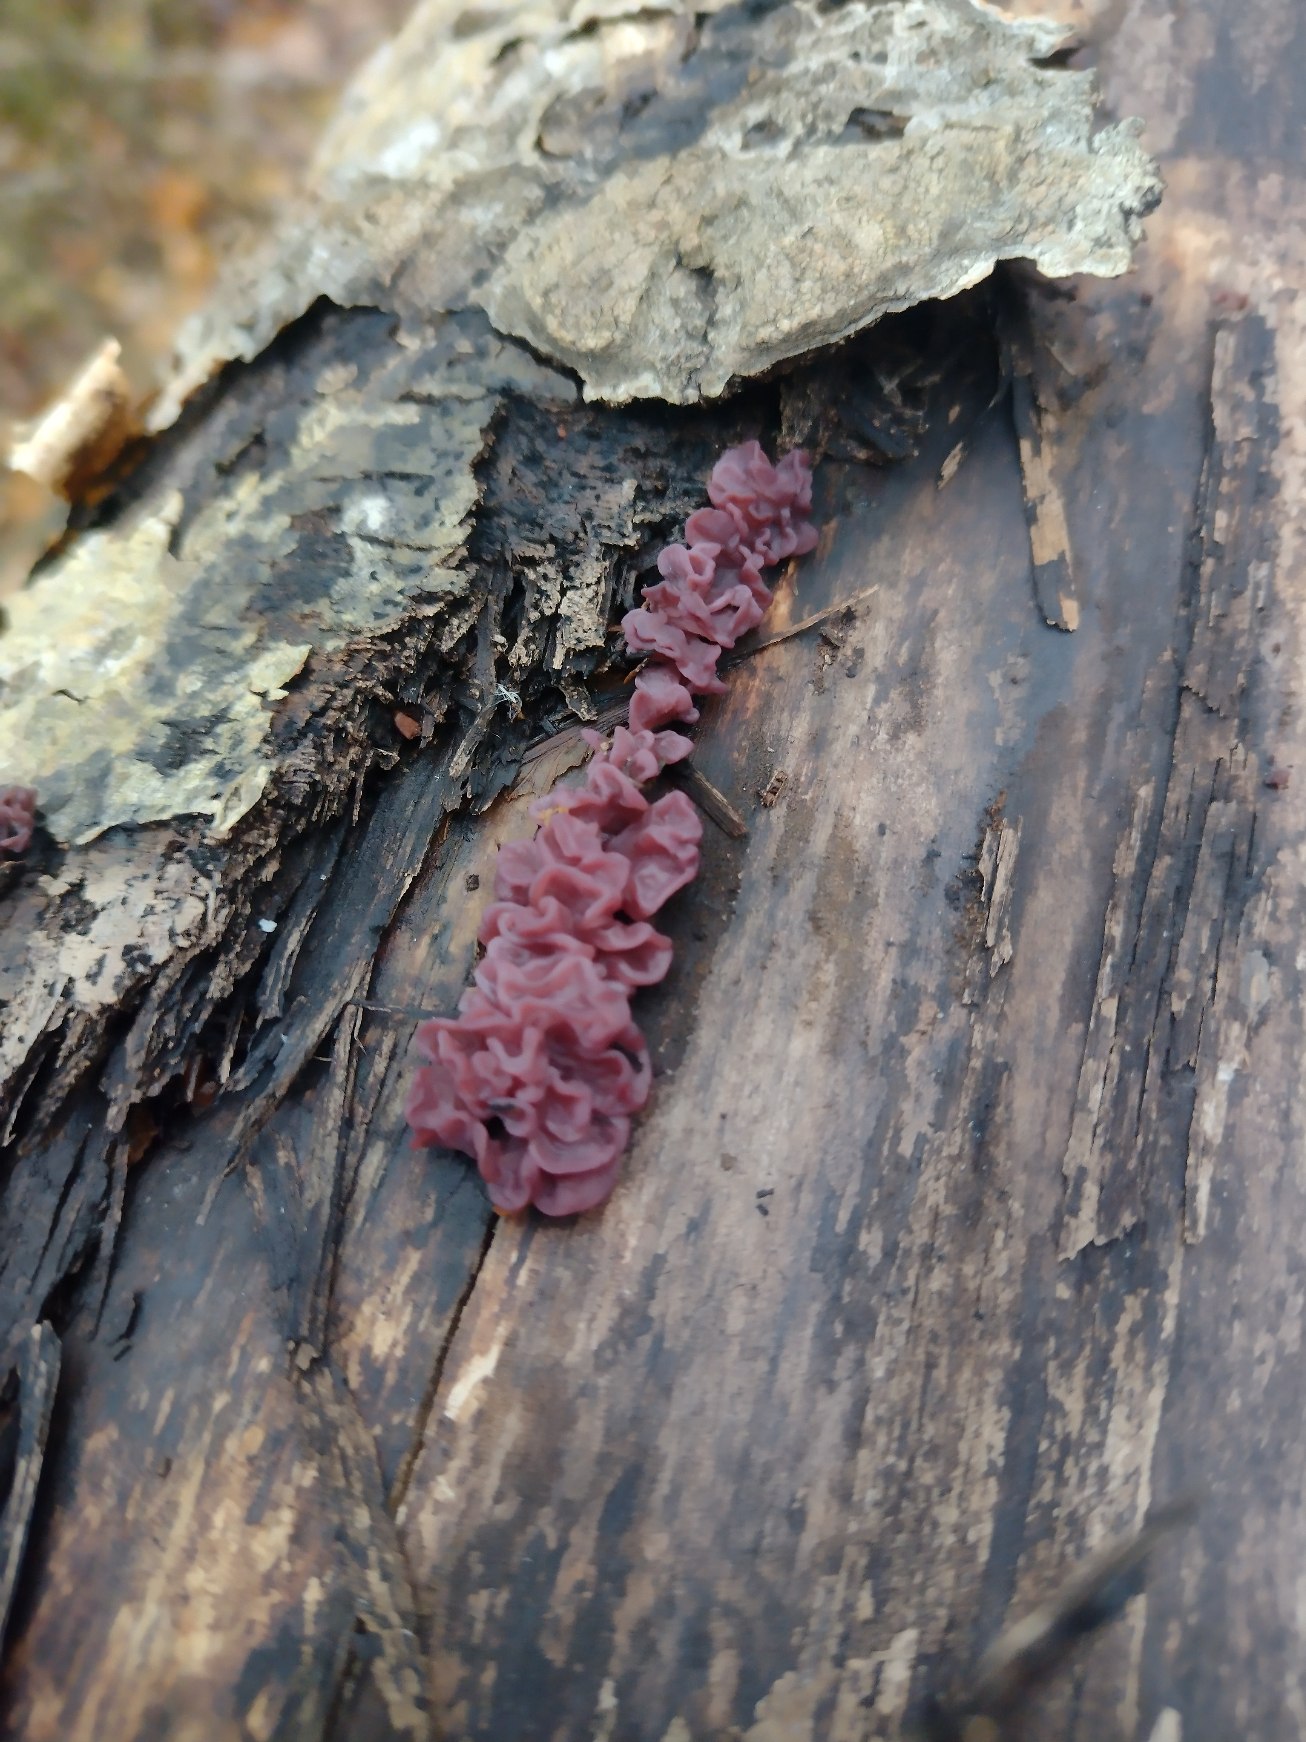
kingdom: Fungi
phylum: Ascomycota
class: Leotiomycetes
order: Helotiales
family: Gelatinodiscaceae
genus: Ascocoryne
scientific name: Ascocoryne sarcoides
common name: Rødlilla sejskive
